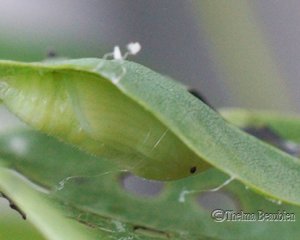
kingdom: Animalia
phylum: Arthropoda
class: Insecta
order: Lepidoptera
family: Hesperiidae
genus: Gesta
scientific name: Gesta
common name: Wild Indigo Duskywing
